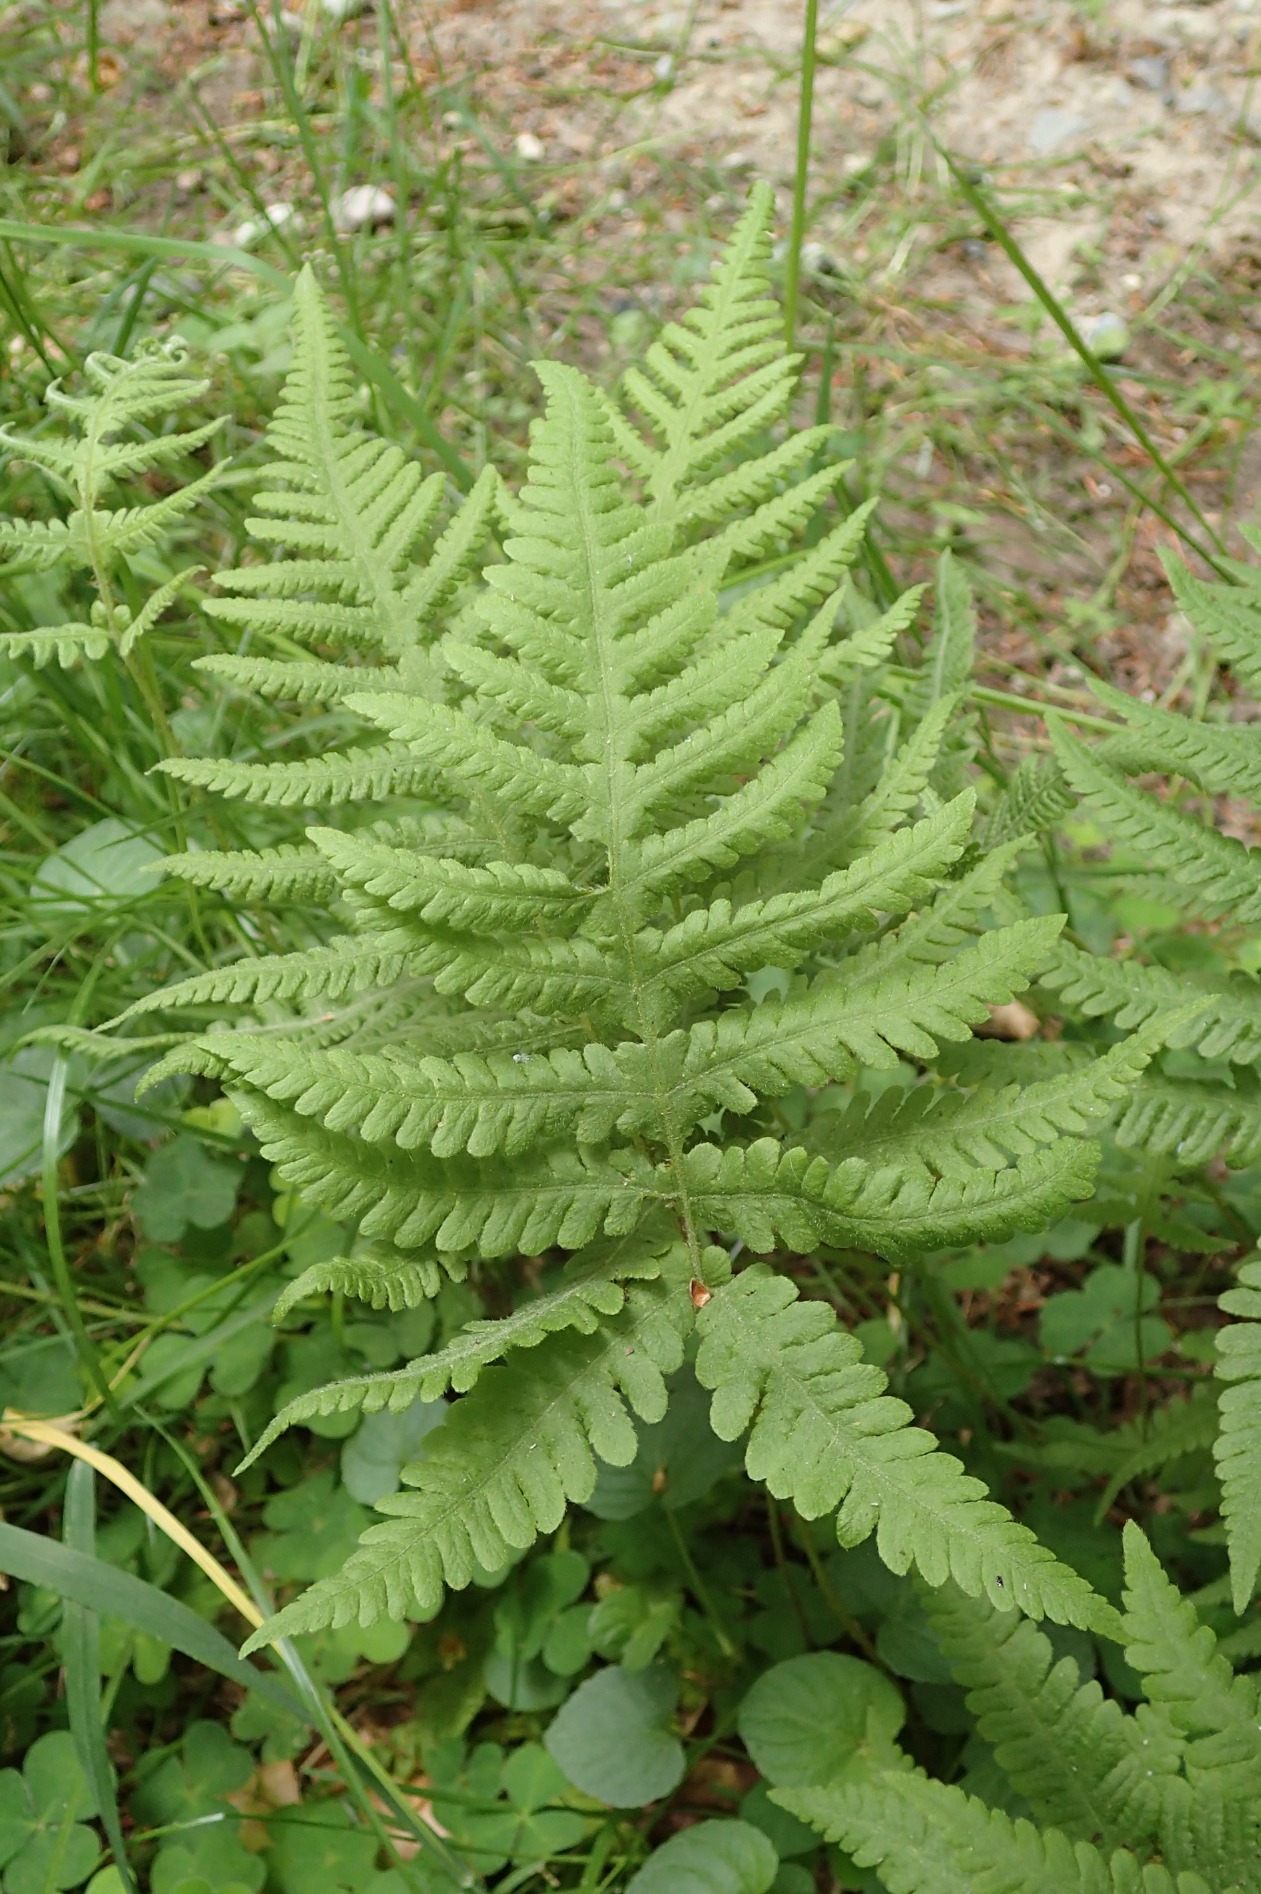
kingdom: Plantae
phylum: Tracheophyta
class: Polypodiopsida
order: Polypodiales
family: Thelypteridaceae
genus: Phegopteris
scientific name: Phegopteris connectilis
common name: Dunet egebregne
